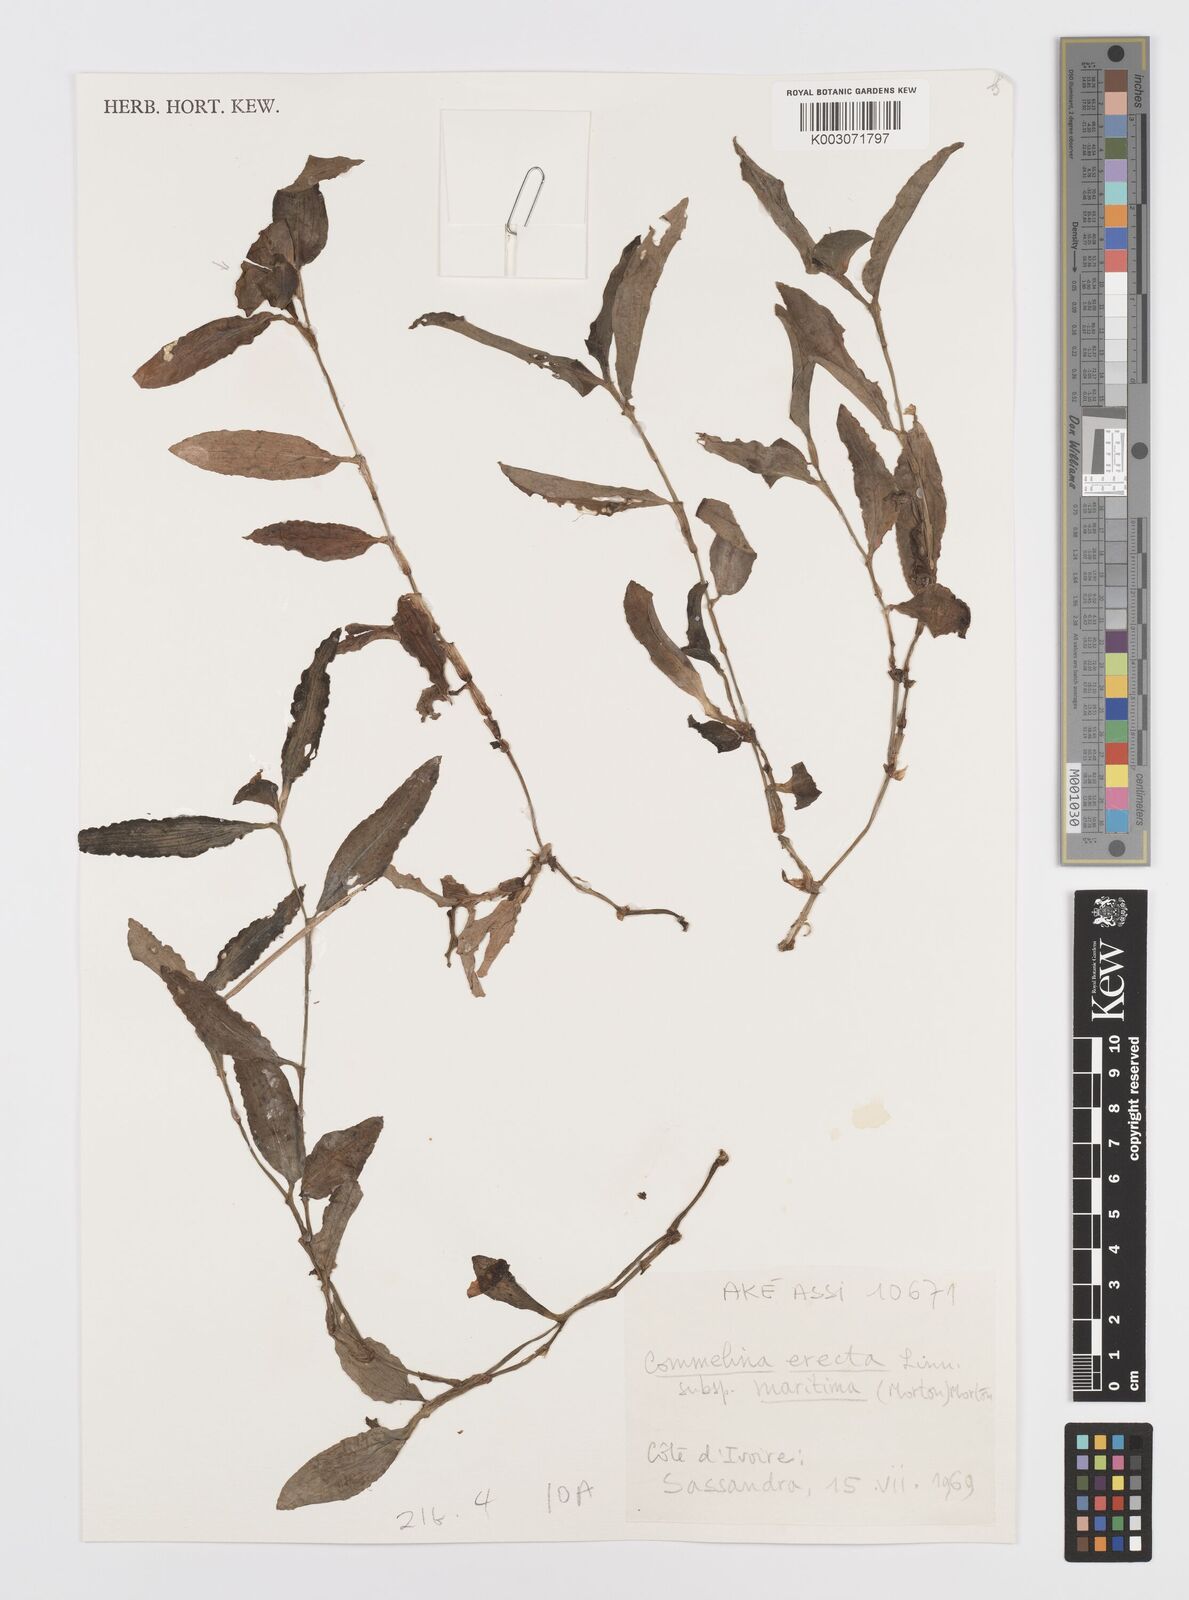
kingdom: Plantae
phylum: Tracheophyta
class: Liliopsida
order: Commelinales
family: Commelinaceae
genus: Commelina
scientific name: Commelina erecta
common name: Blousel blommetjie
